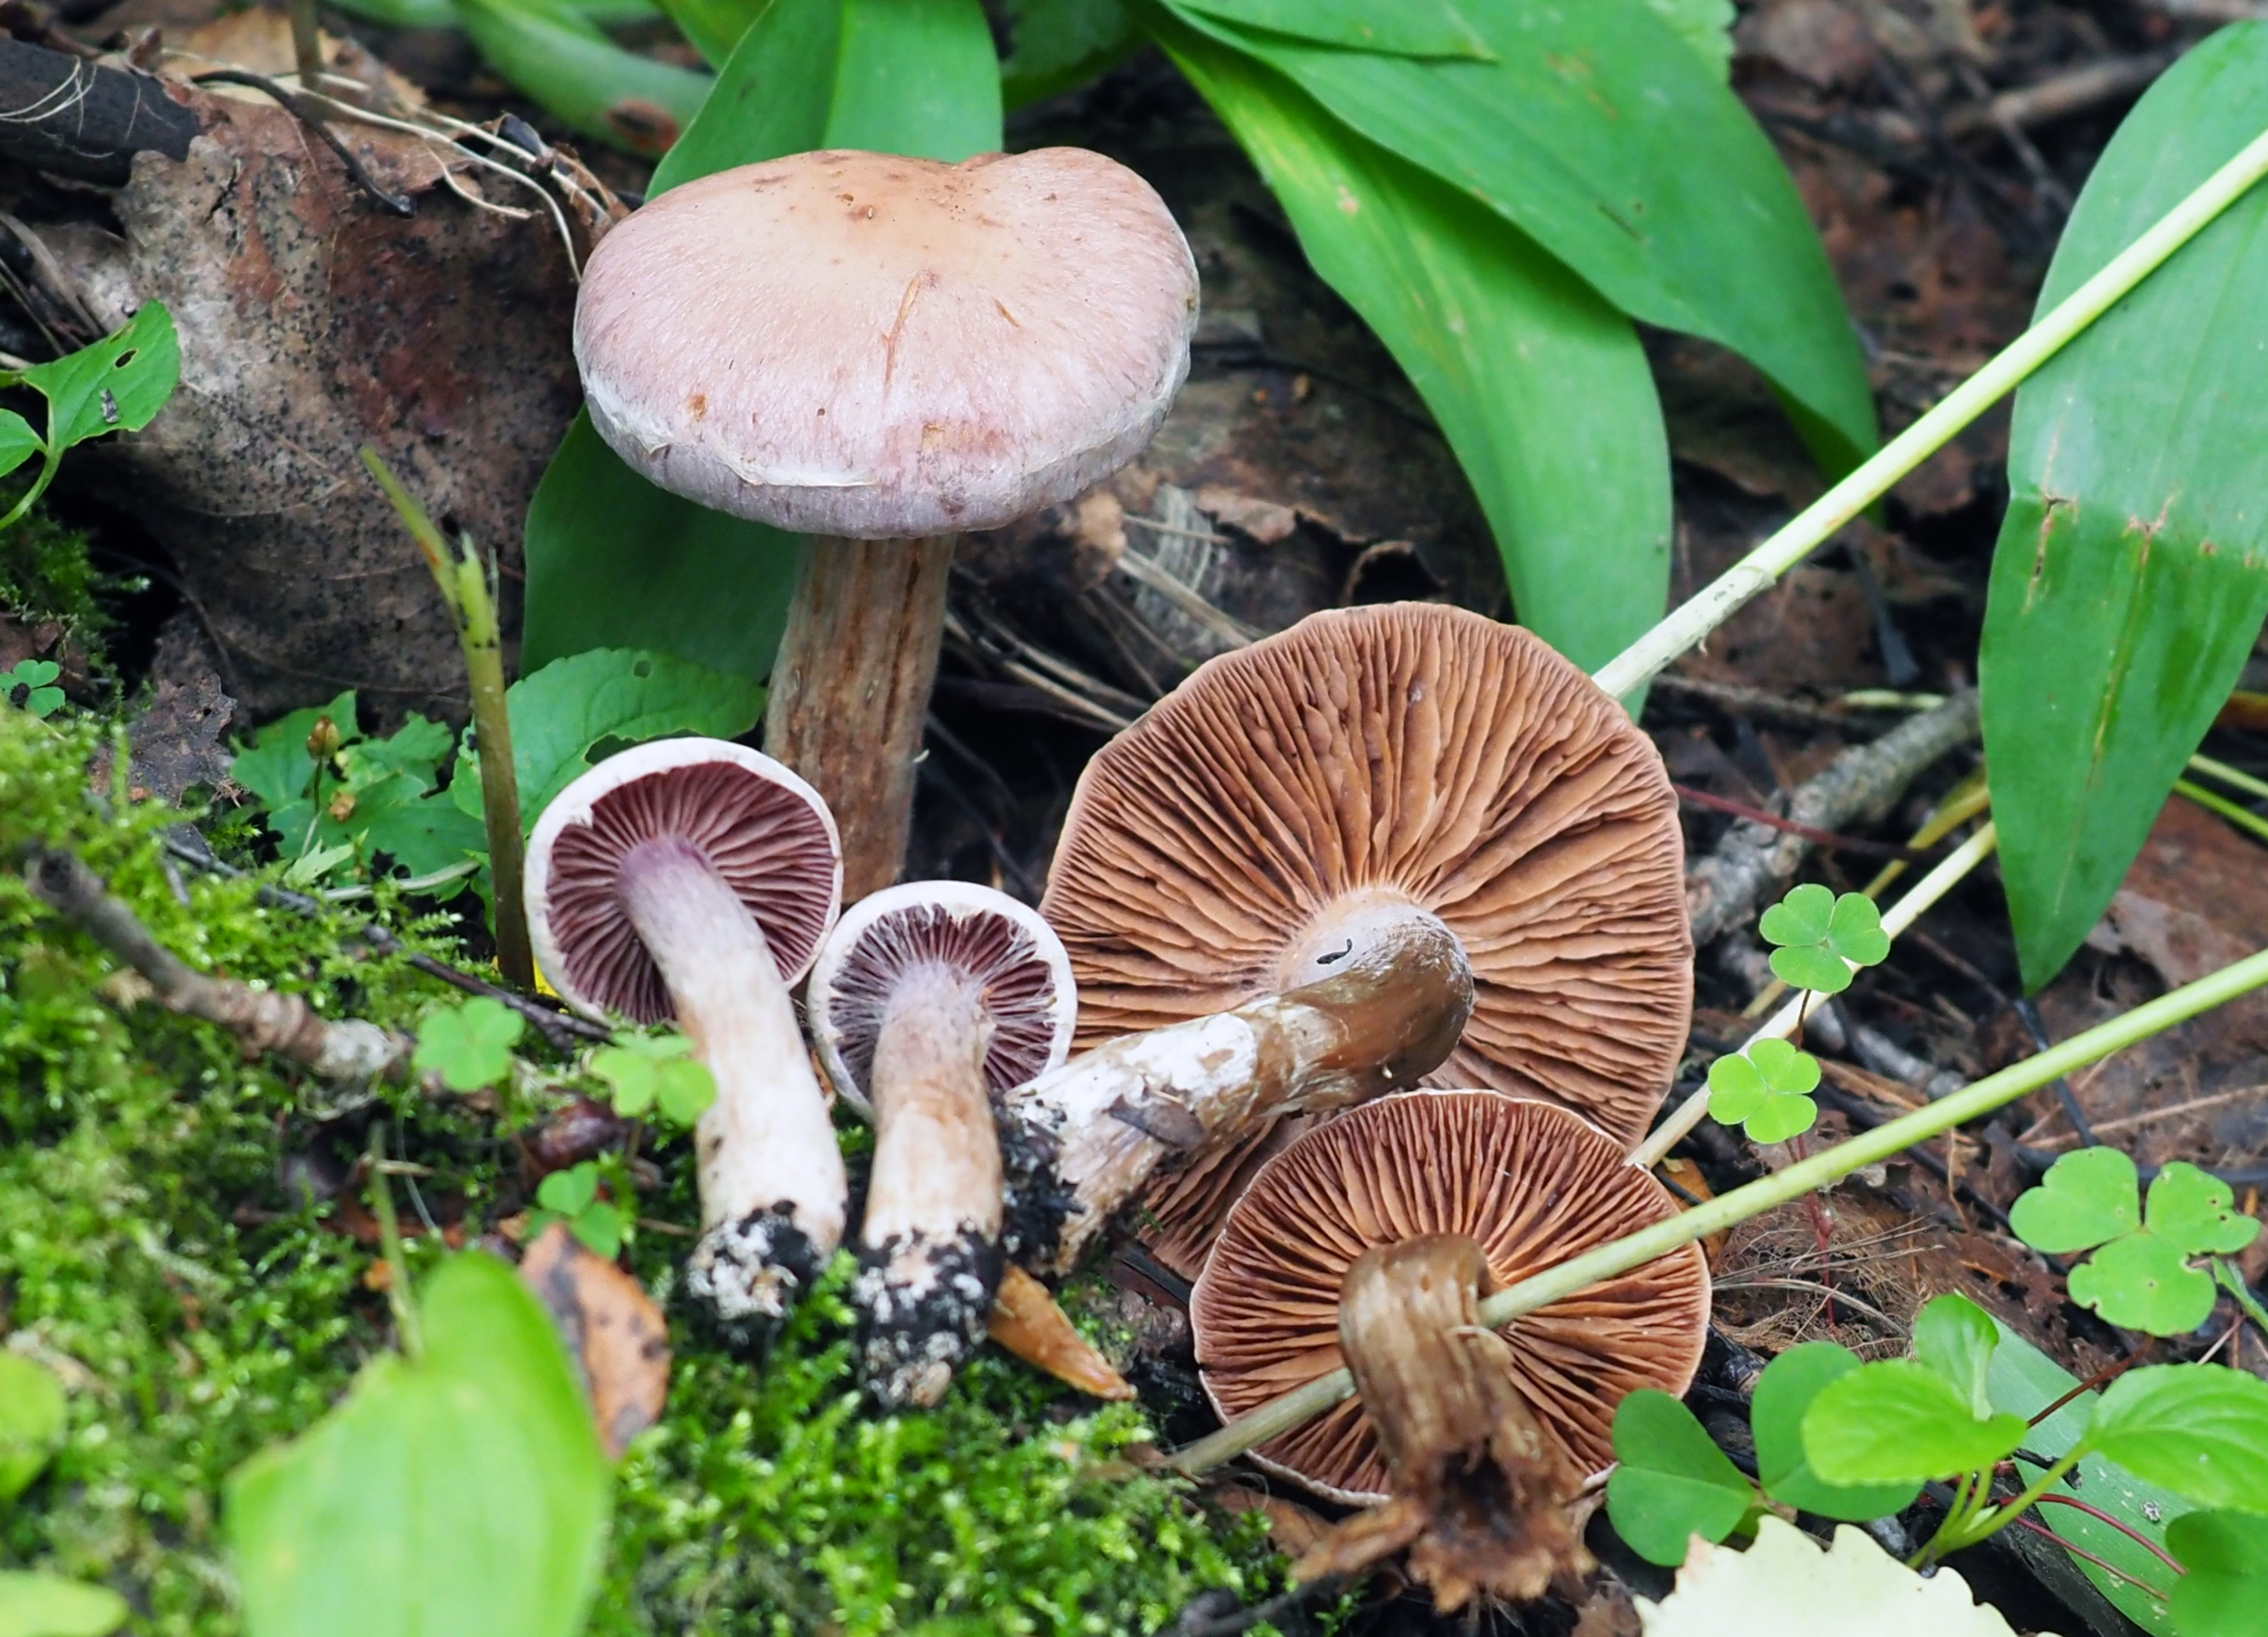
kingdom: Fungi
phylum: Basidiomycota
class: Agaricomycetes
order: Agaricales
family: Cortinariaceae
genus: Cortinarius
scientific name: Cortinarius lucorum
